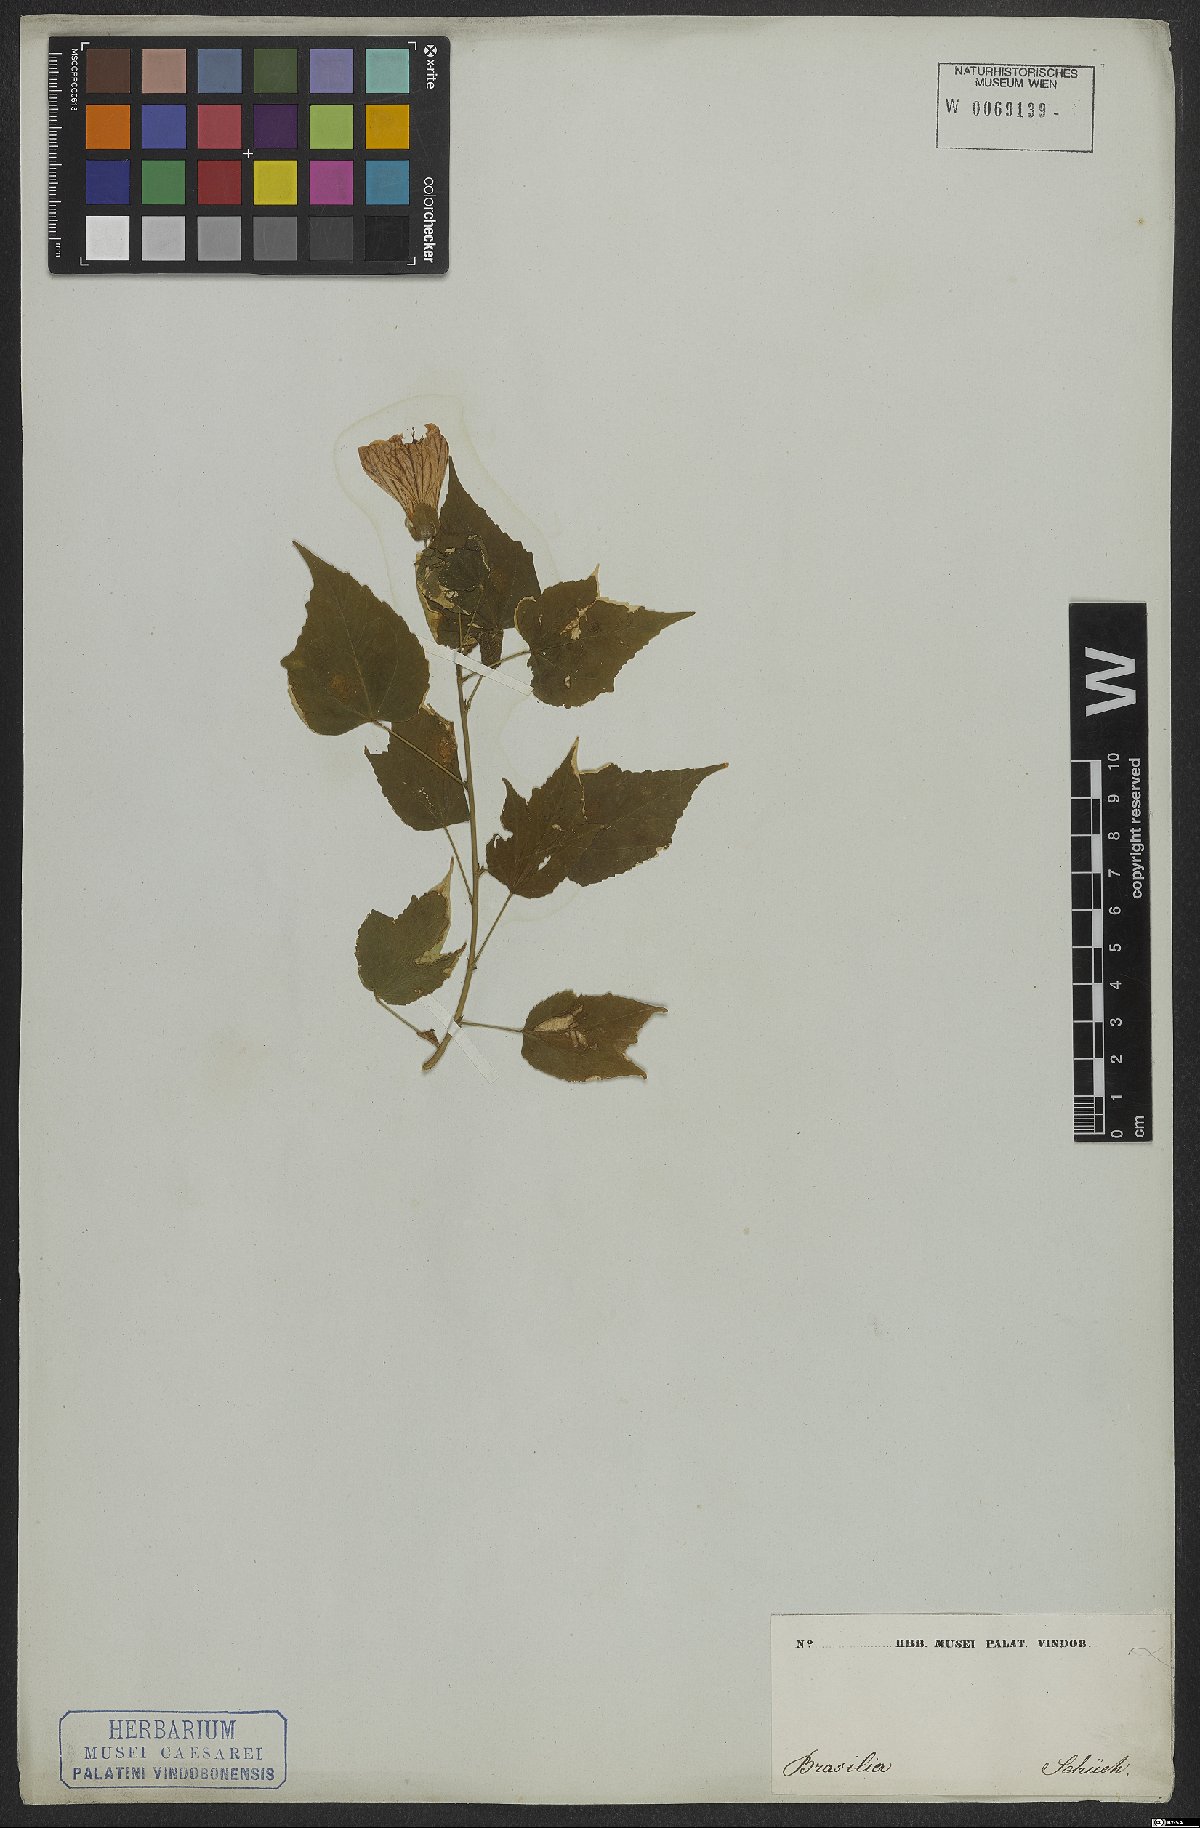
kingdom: Plantae
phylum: Tracheophyta
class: Magnoliopsida
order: Malvales
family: Malvaceae
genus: Callianthe
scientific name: Callianthe striata
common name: Flowering-maple
